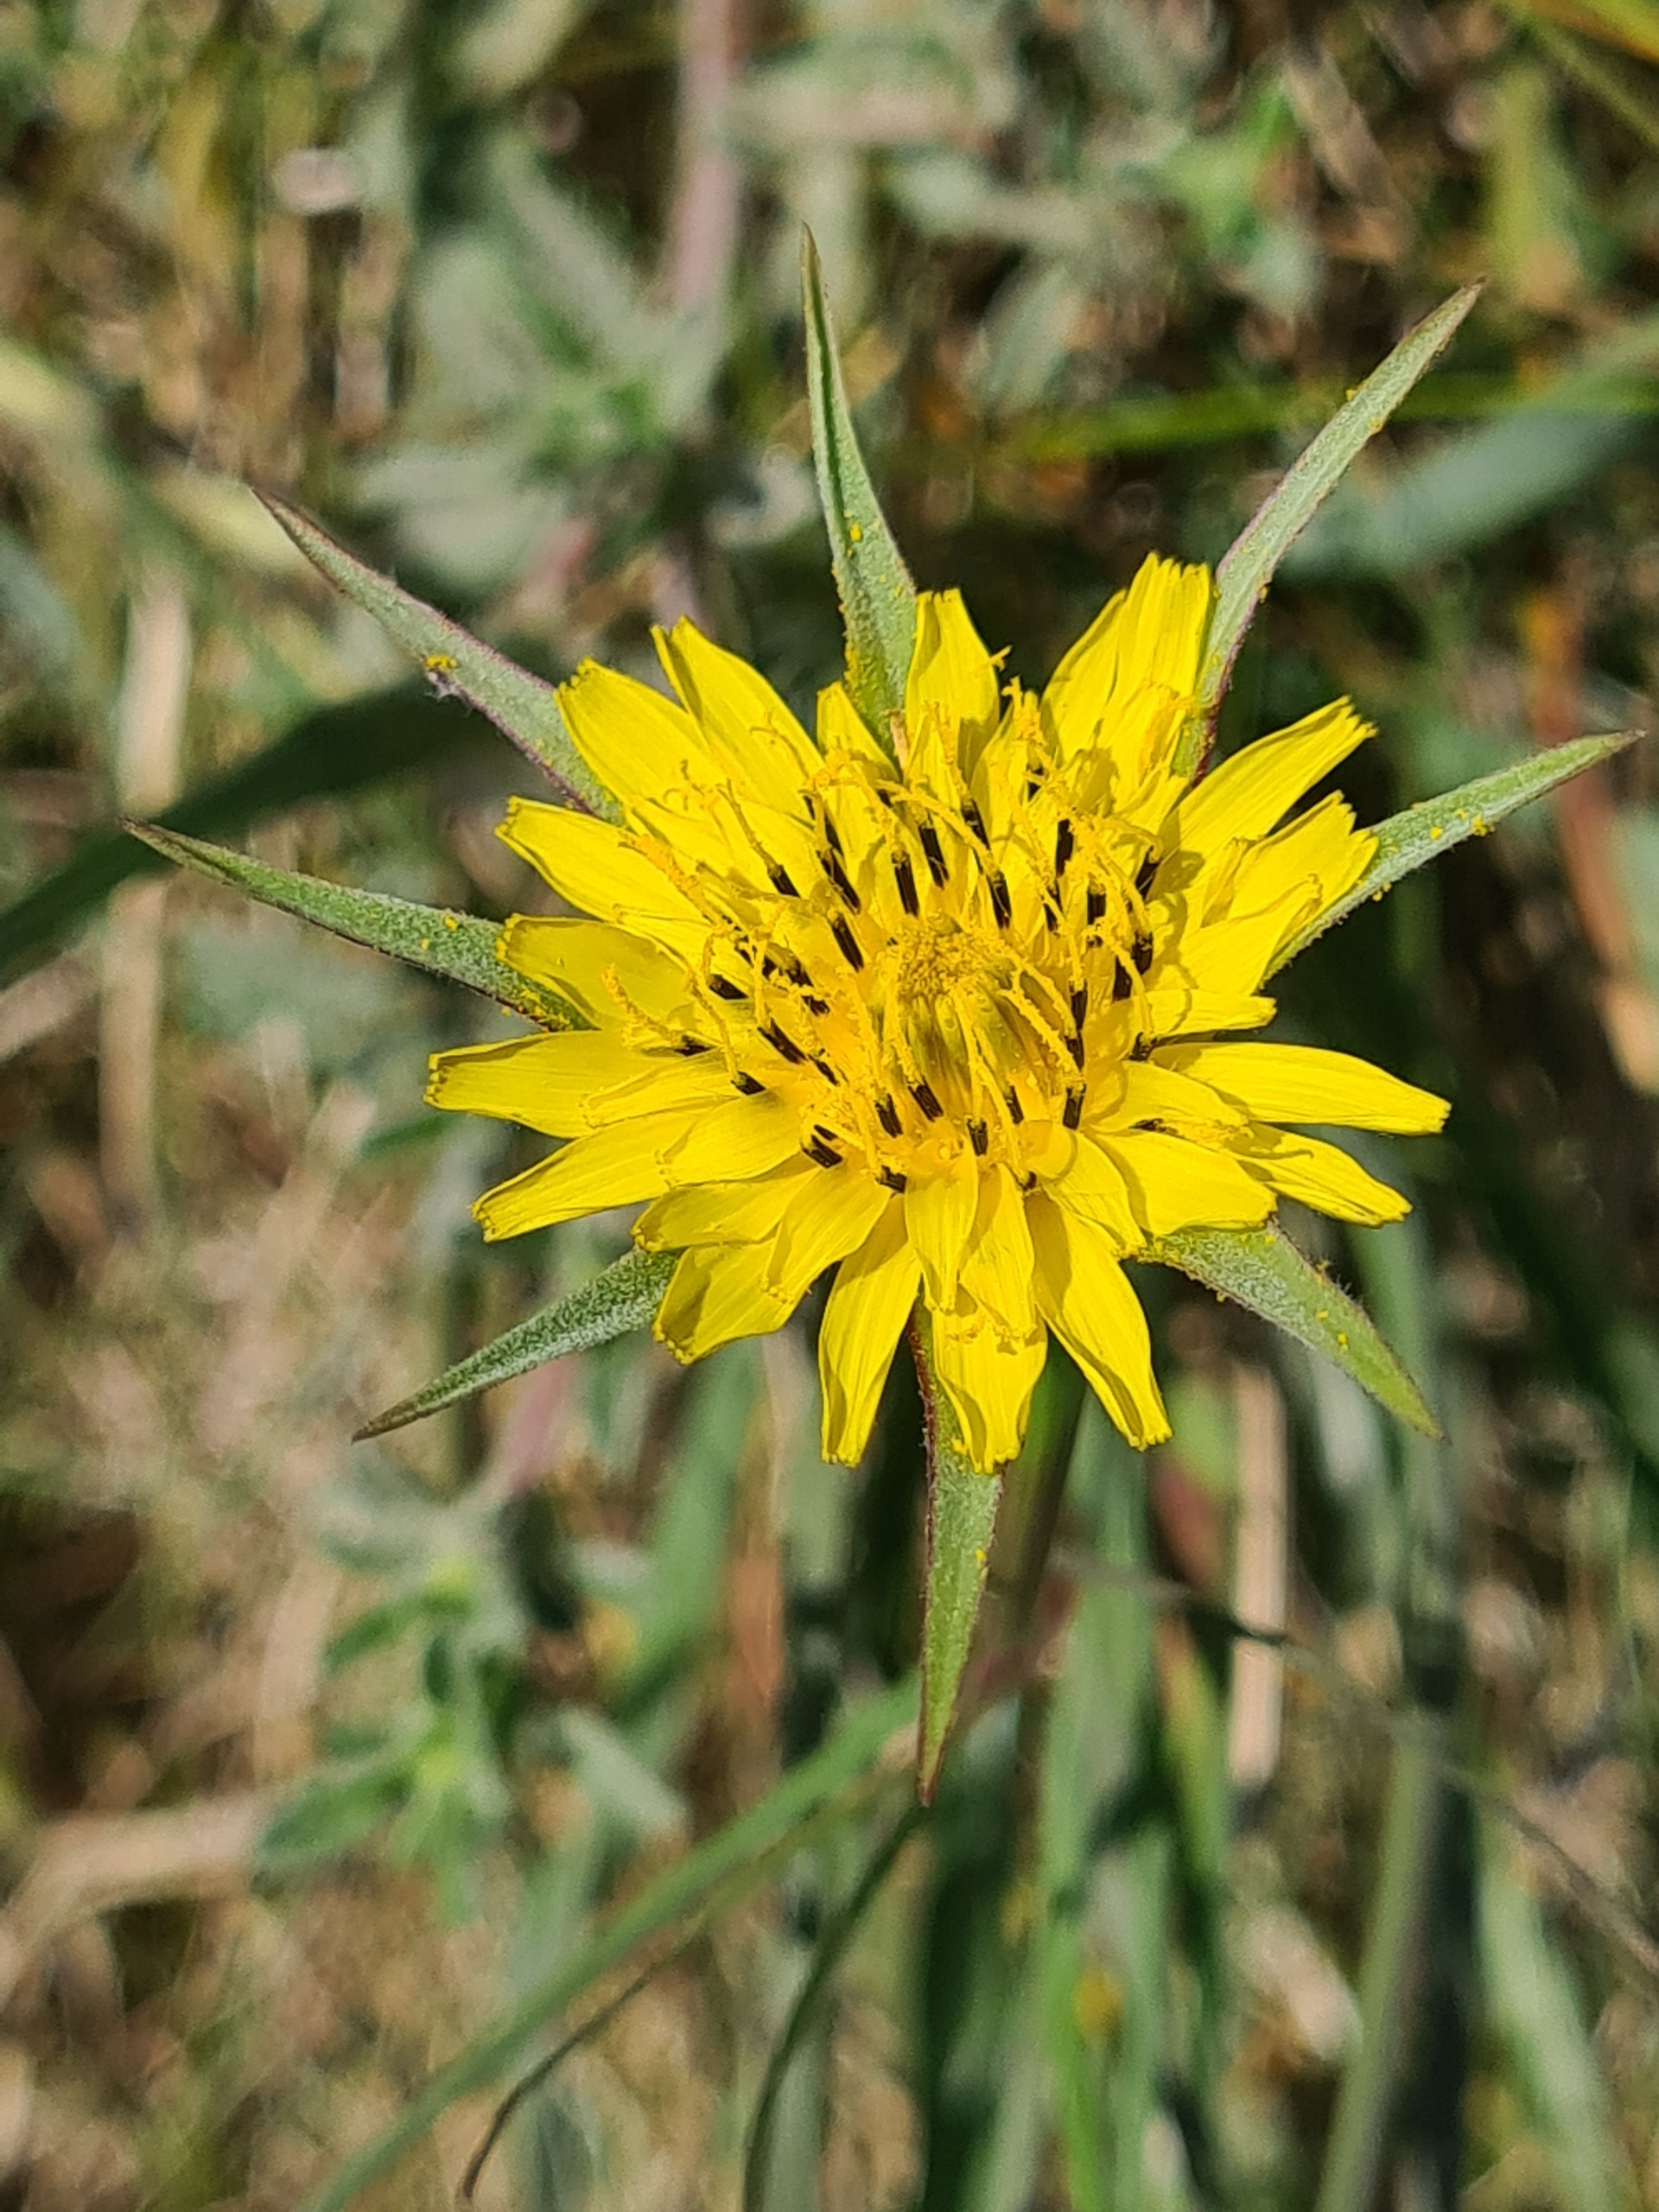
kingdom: Plantae
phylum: Tracheophyta
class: Magnoliopsida
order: Asterales
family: Asteraceae
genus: Tragopogon
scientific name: Tragopogon minor
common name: Småkronet gedeskæg
